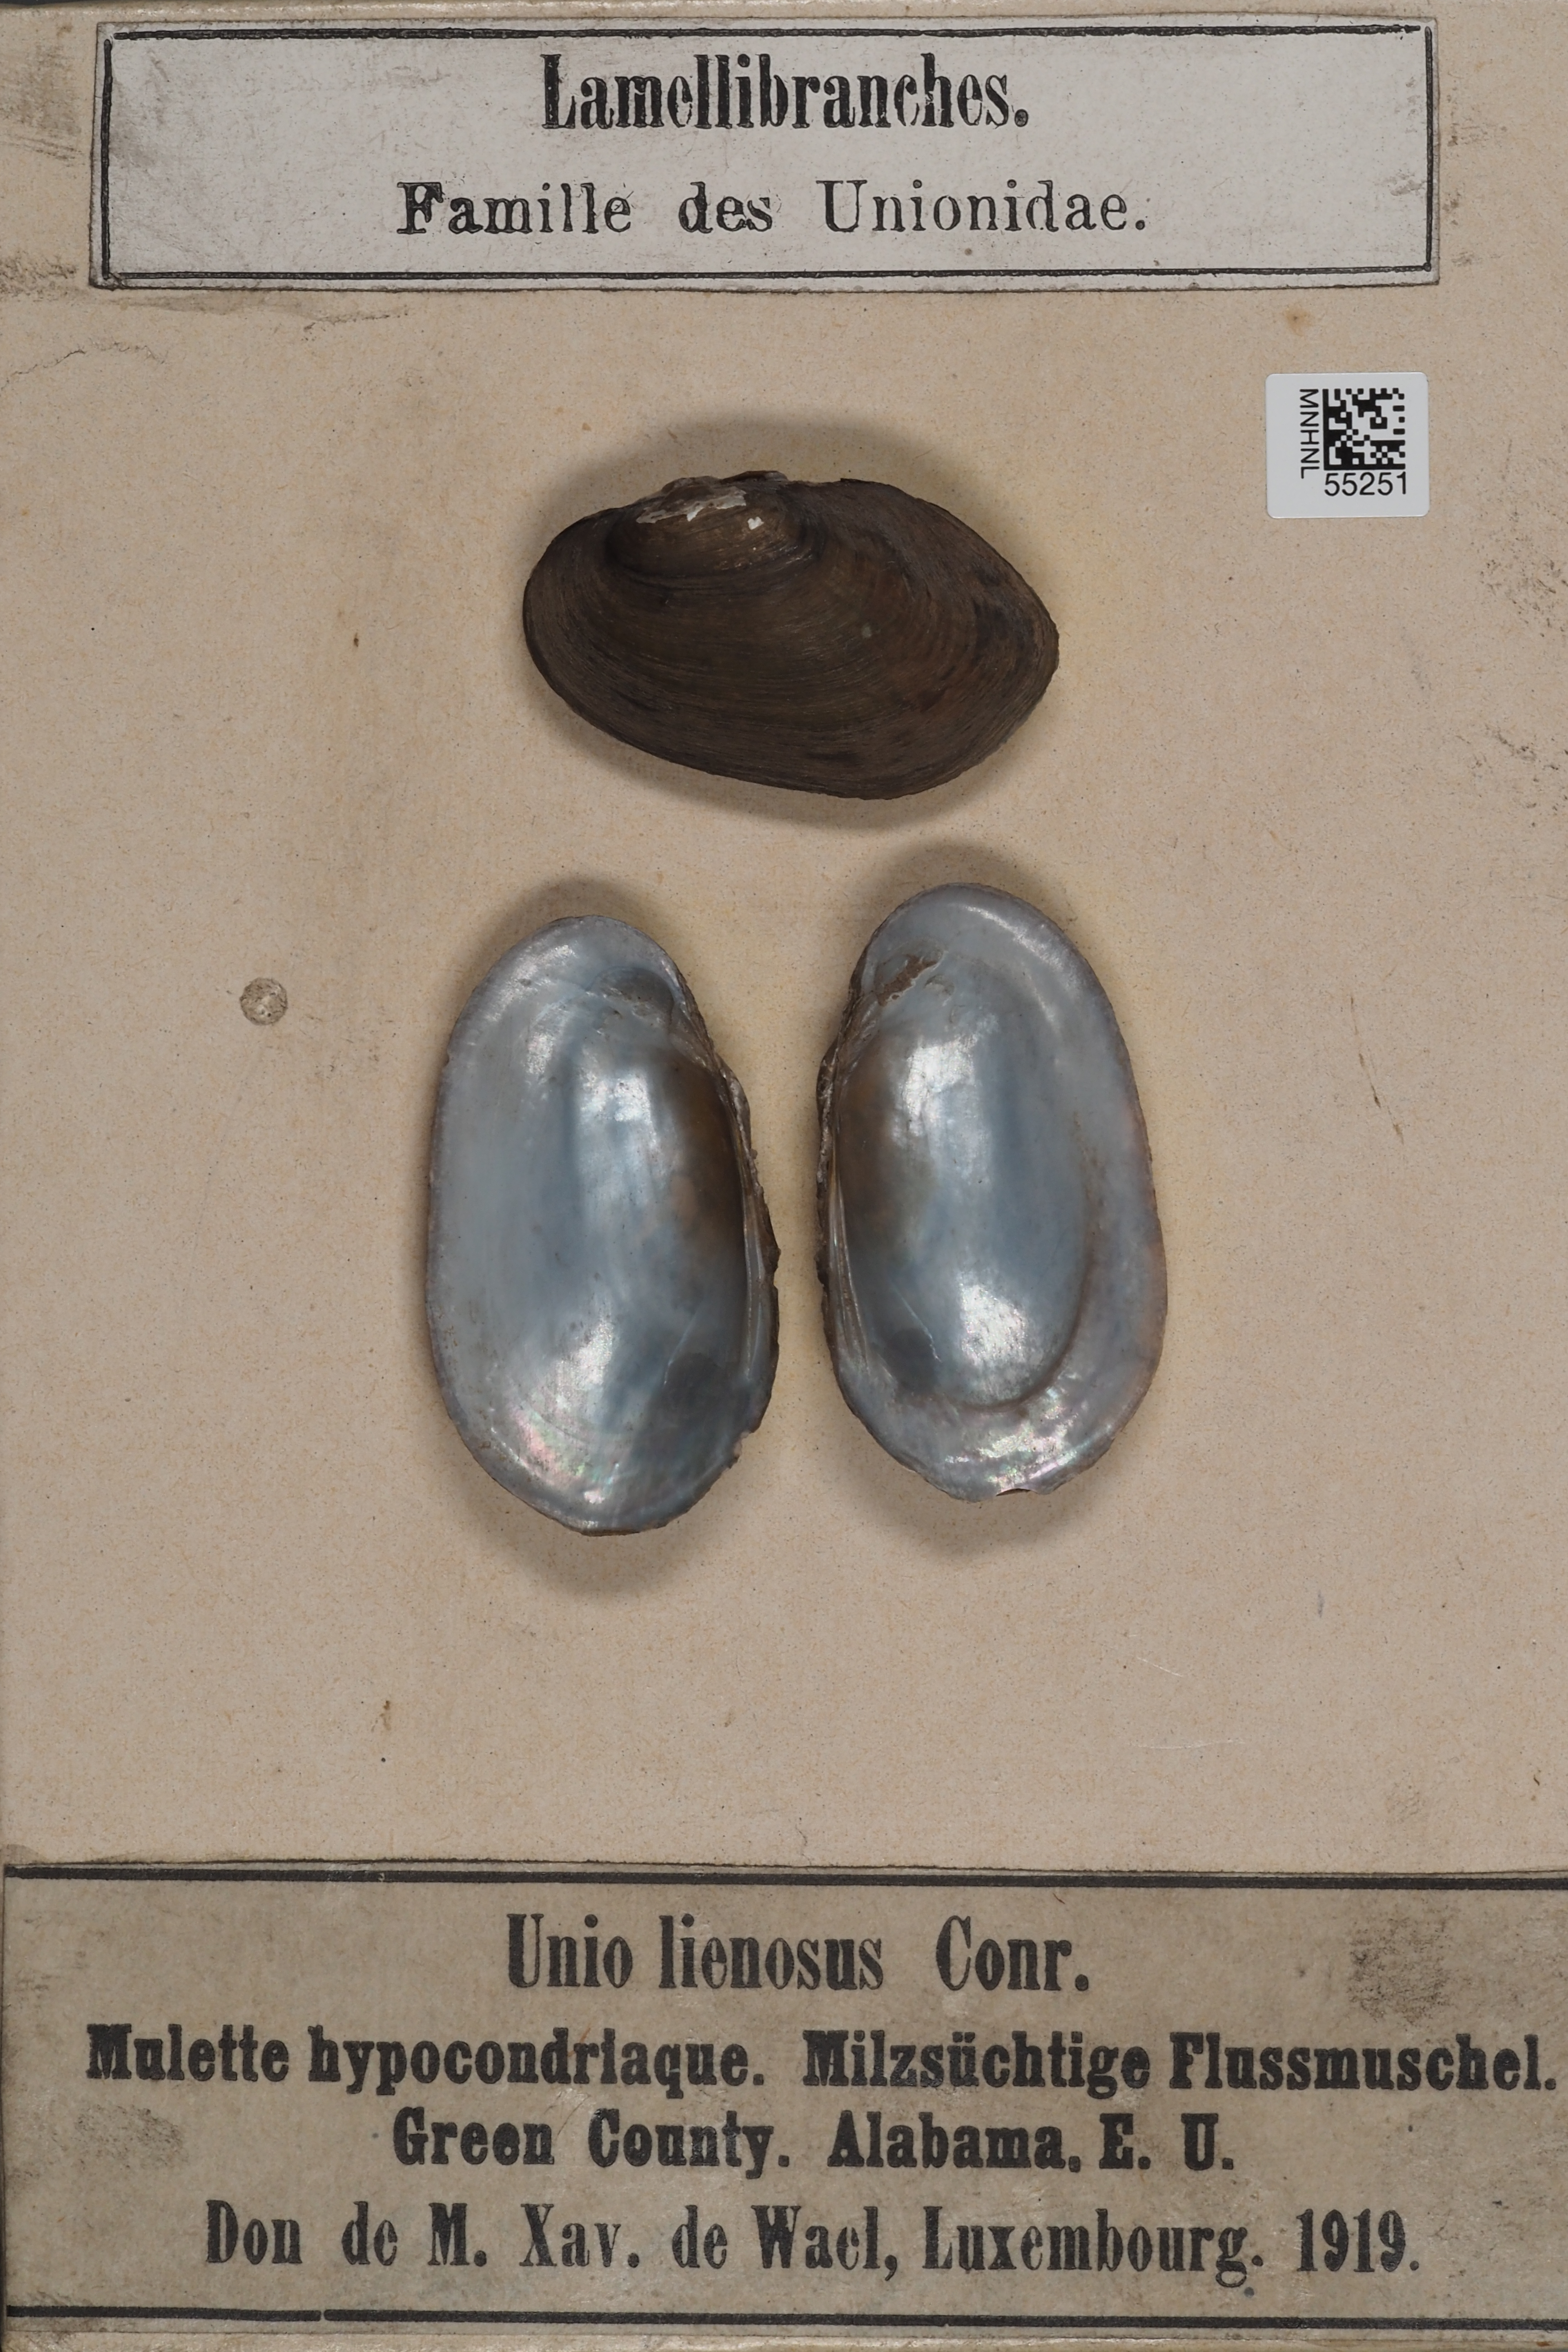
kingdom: Animalia
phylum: Mollusca
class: Bivalvia
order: Unionida
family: Unionidae
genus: Leaunio
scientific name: Leaunio lienosus
